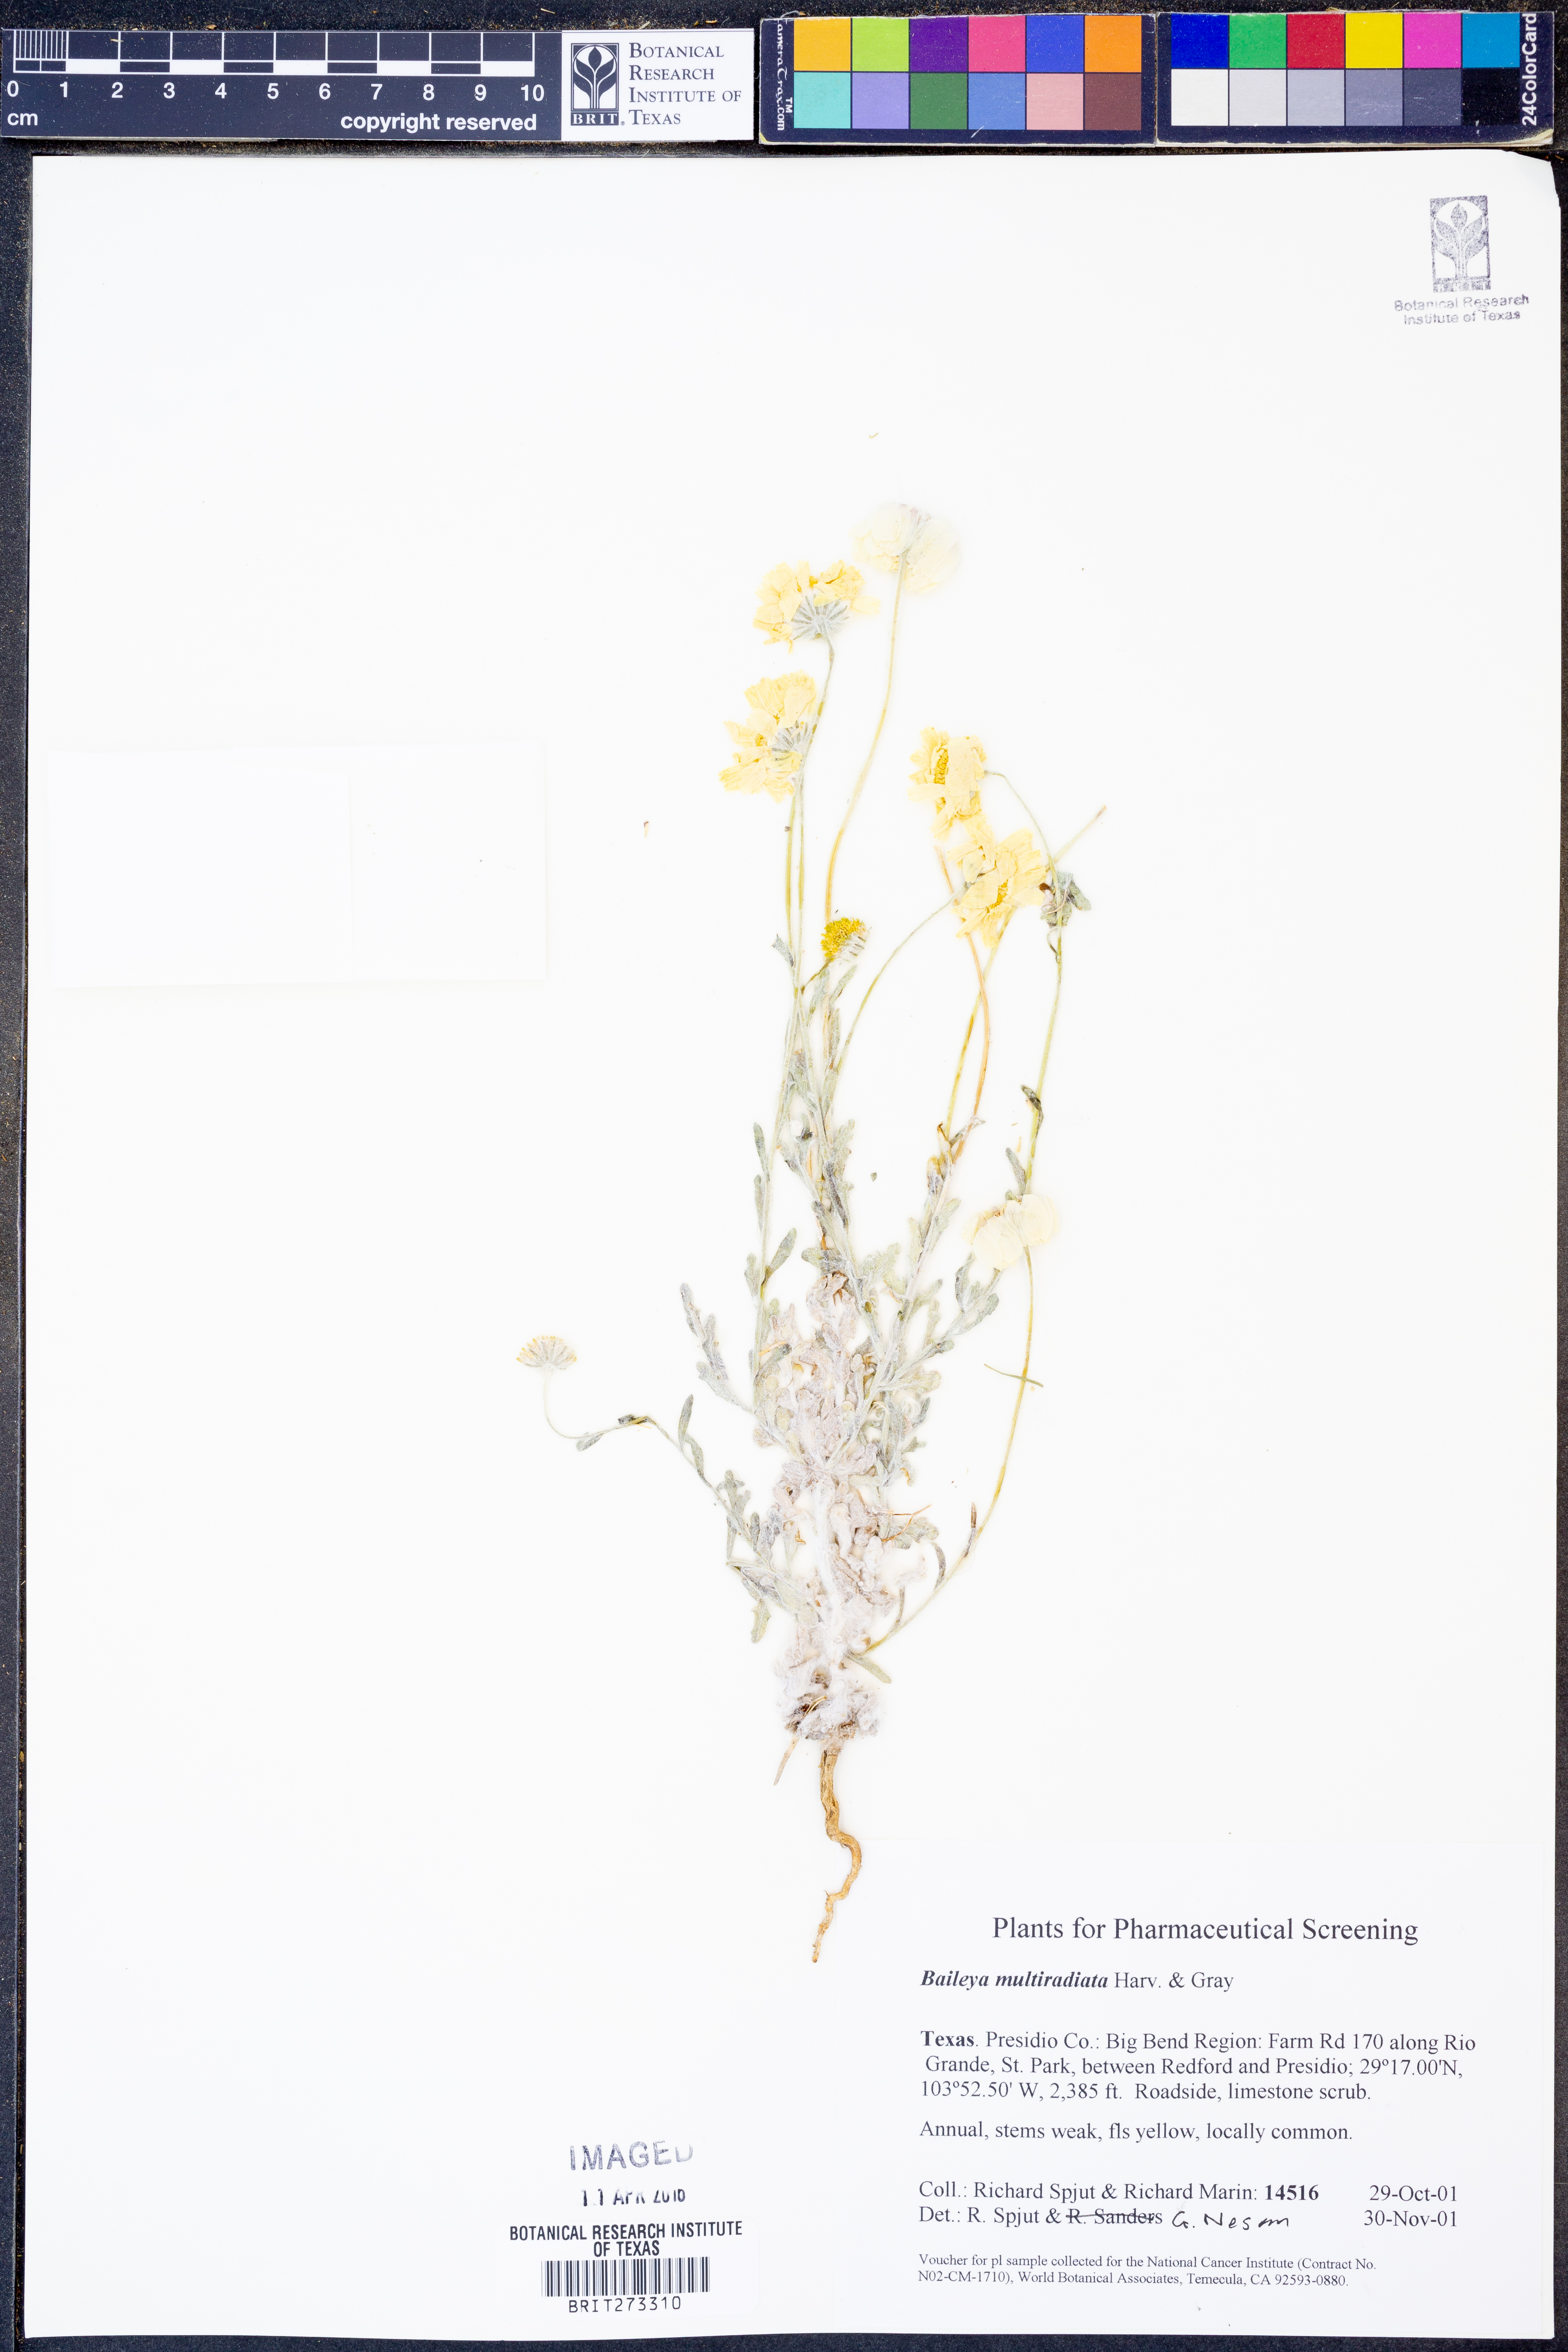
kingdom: Plantae
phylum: Tracheophyta
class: Magnoliopsida
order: Asterales
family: Asteraceae
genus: Baileya
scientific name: Baileya multiradiata
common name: Desert-marigold
